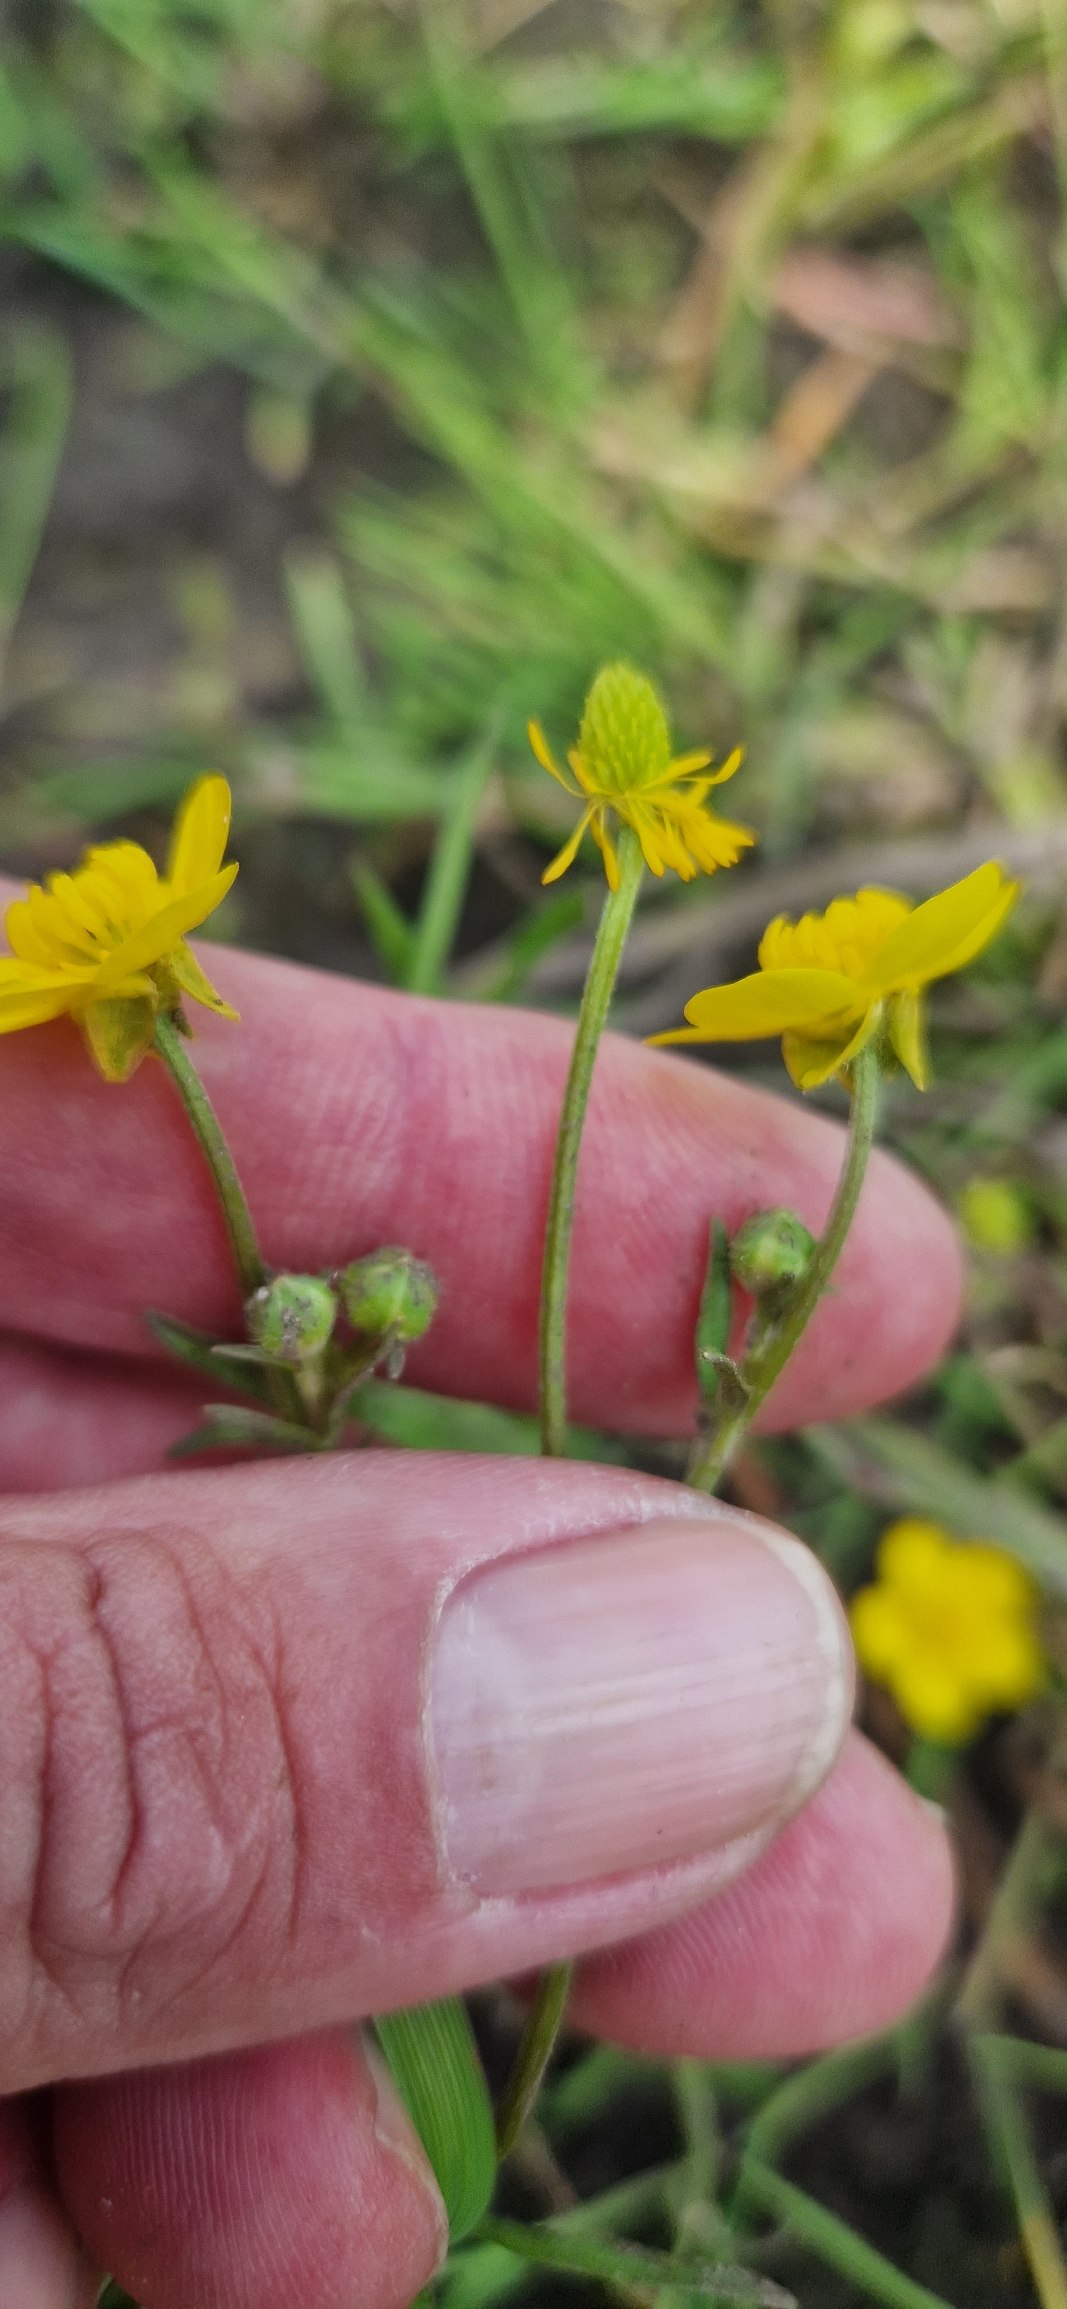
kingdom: Plantae
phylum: Tracheophyta
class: Magnoliopsida
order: Ranunculales
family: Ranunculaceae
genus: Ranunculus
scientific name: Ranunculus sardous
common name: Stivhåret ranunkel
